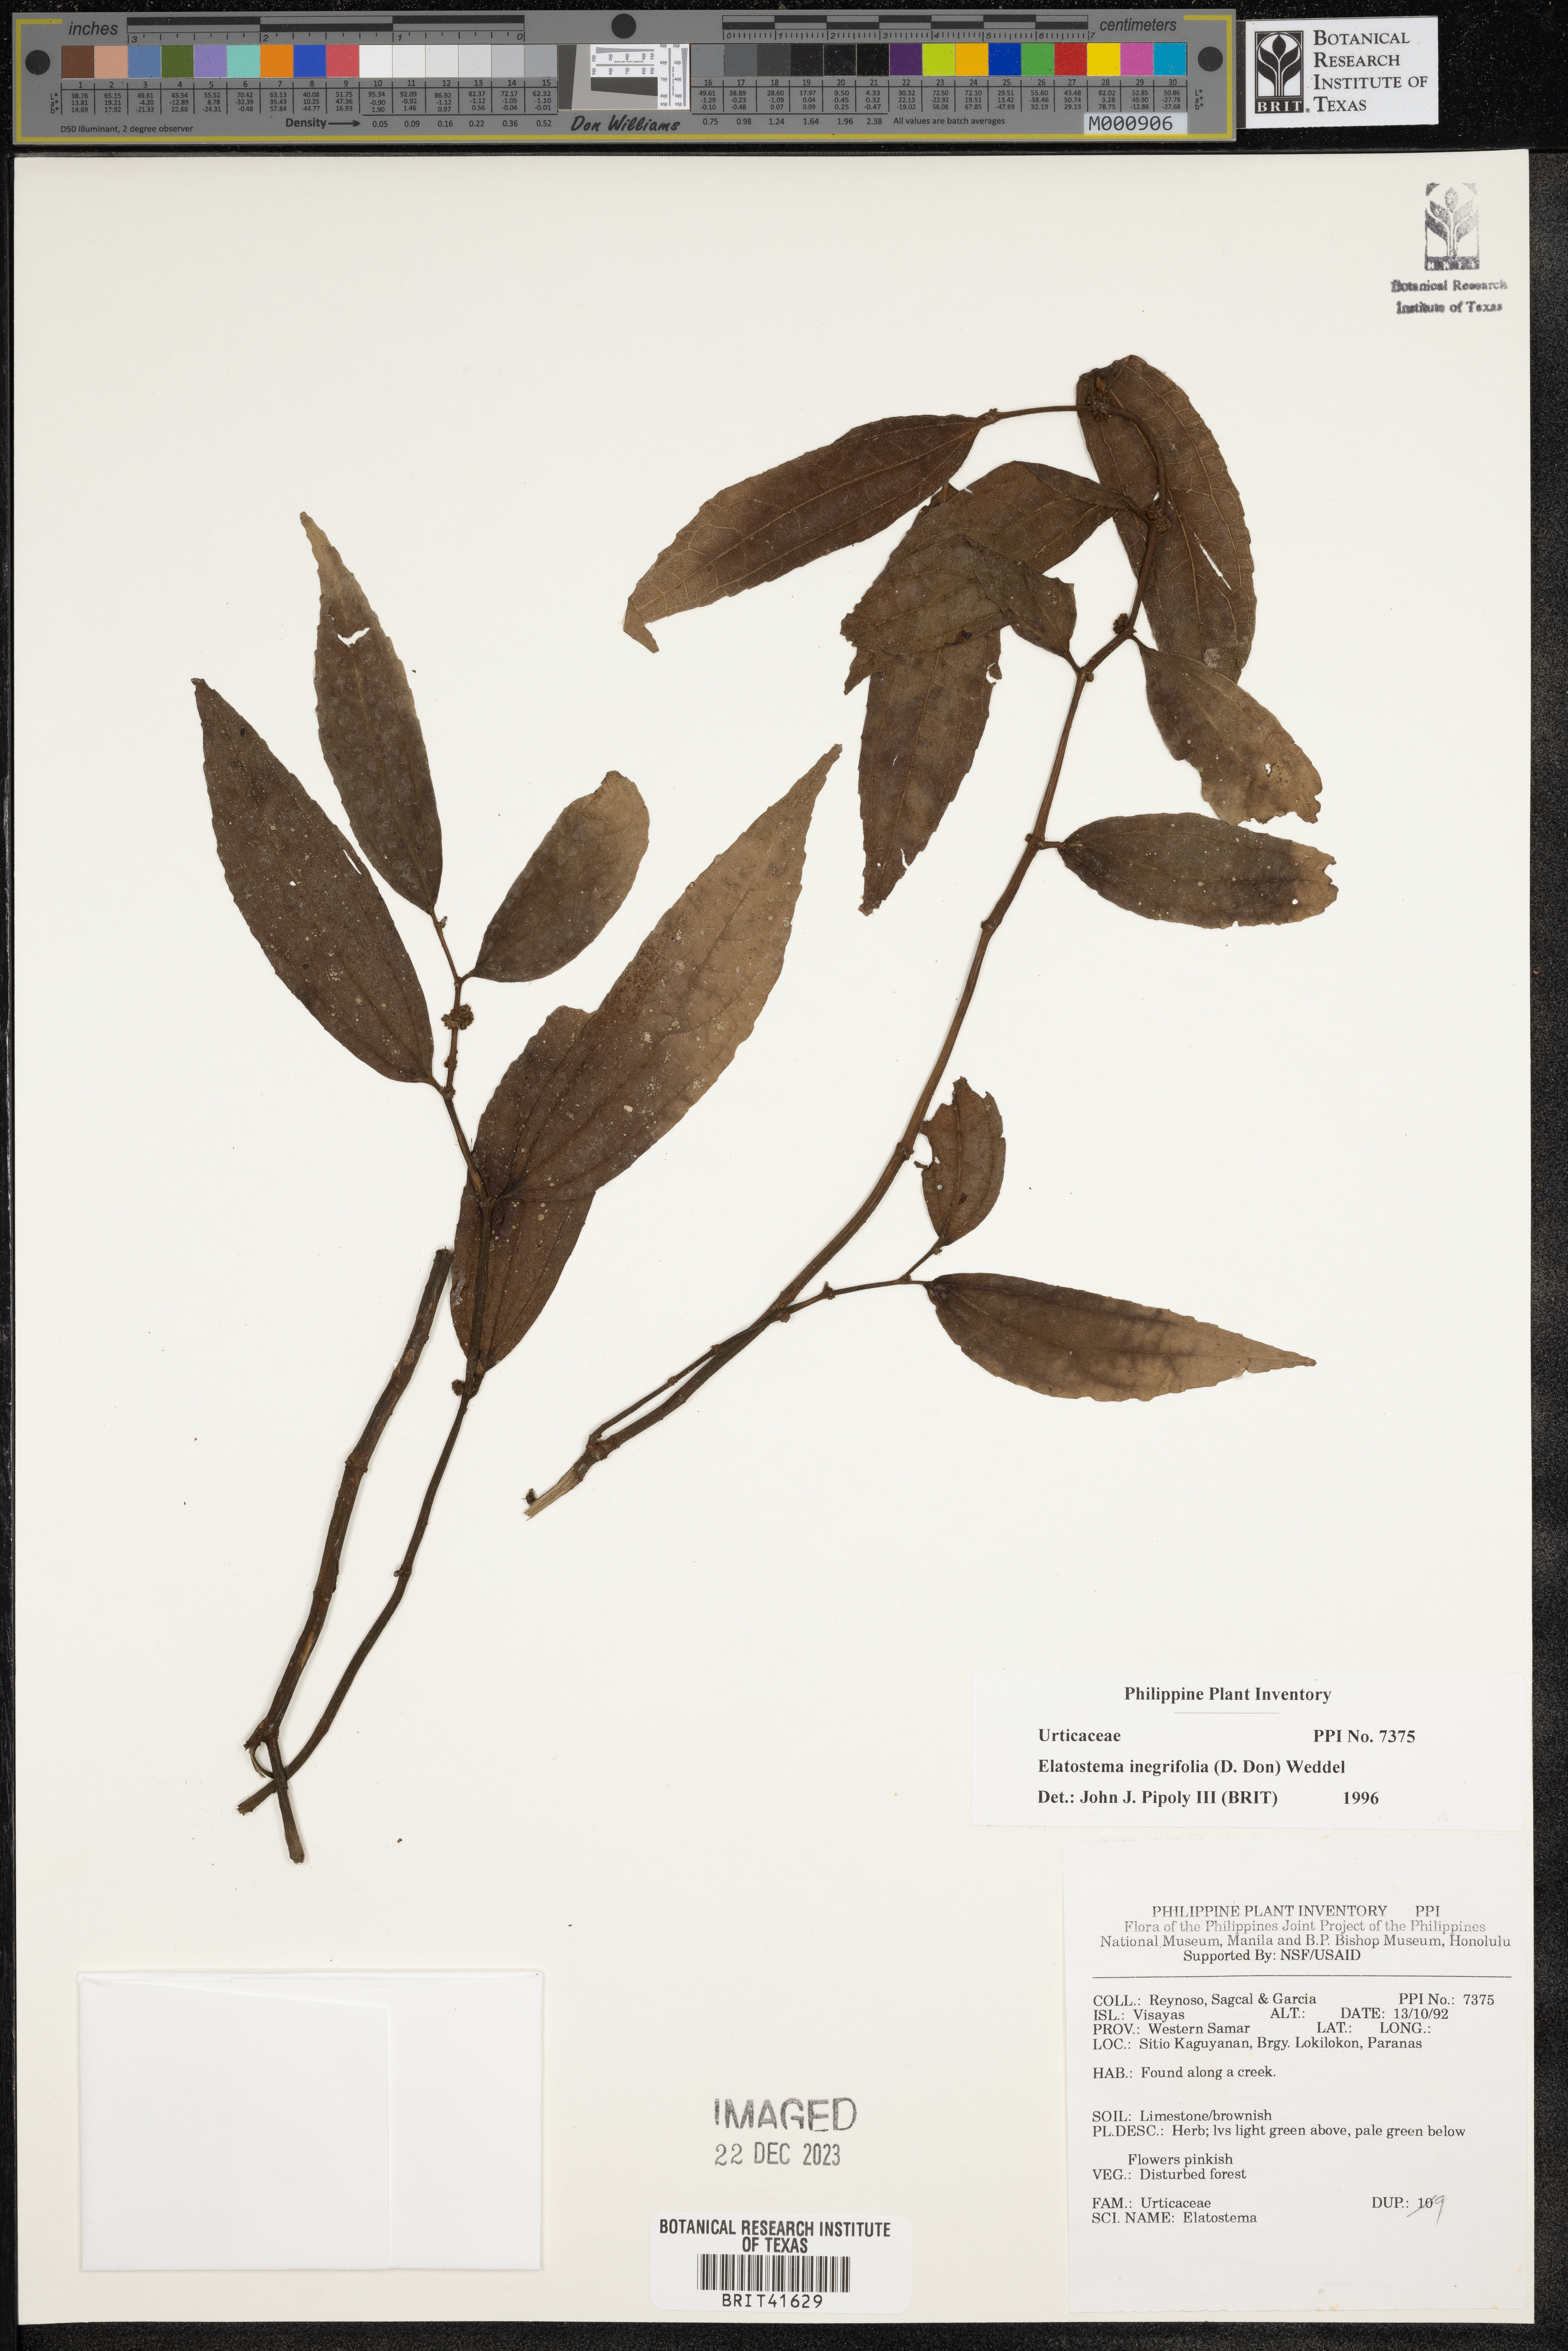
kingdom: Plantae
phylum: Tracheophyta
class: Magnoliopsida
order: Rosales
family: Urticaceae
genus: Elatostema
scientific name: Elatostema integrifolium
